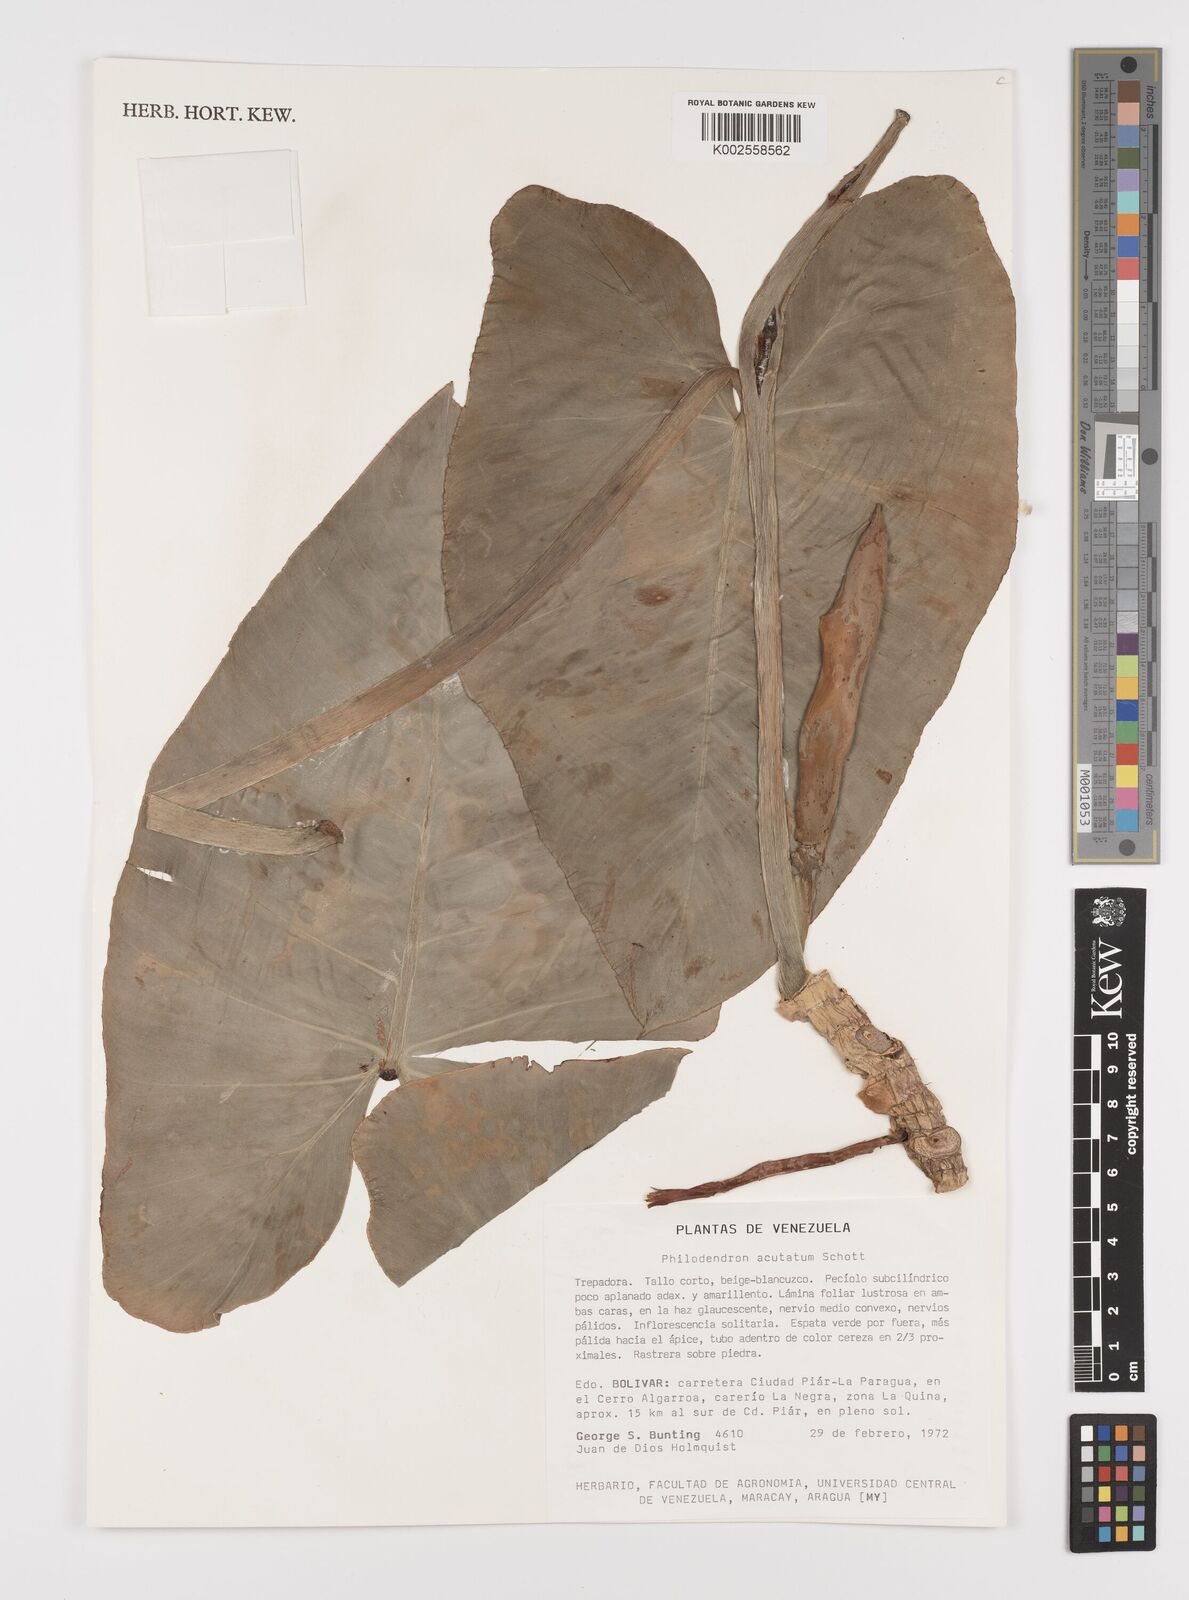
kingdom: Plantae
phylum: Tracheophyta
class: Liliopsida
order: Alismatales
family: Araceae
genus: Philodendron
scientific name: Philodendron quinquenervium
